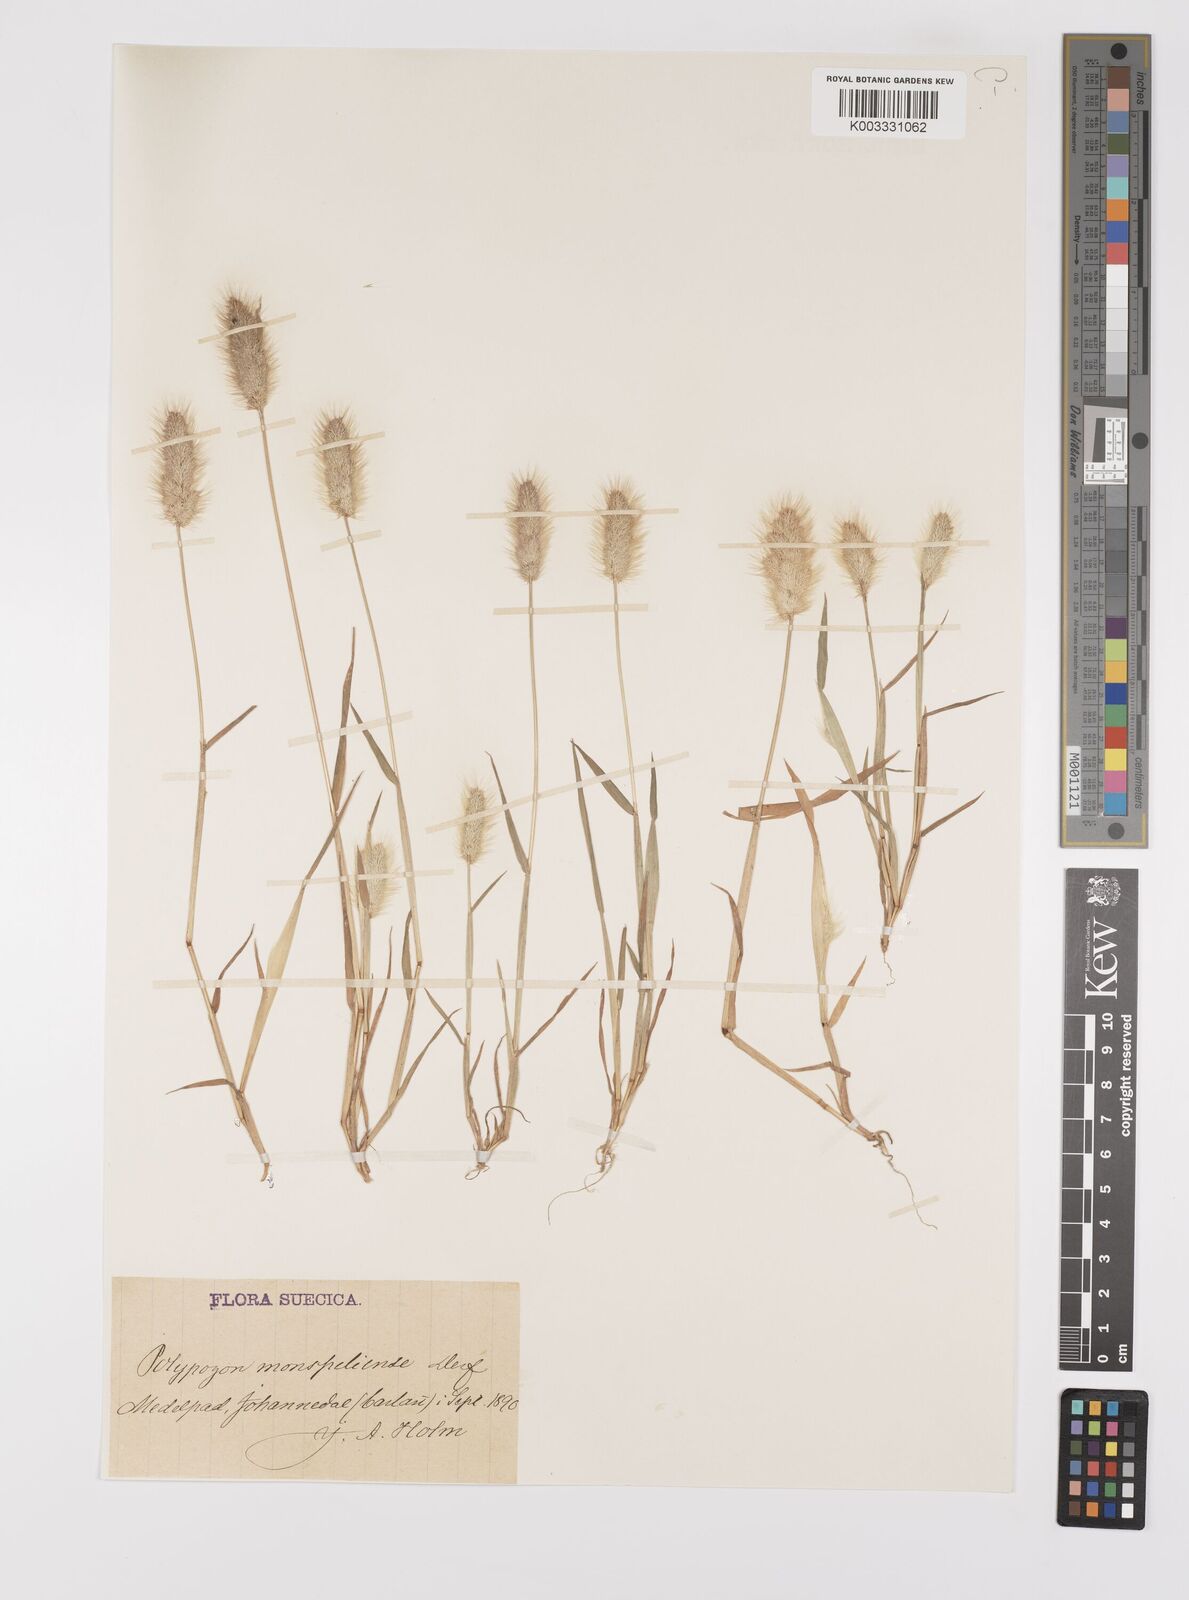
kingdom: Plantae
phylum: Tracheophyta
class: Liliopsida
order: Poales
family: Poaceae
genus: Polypogon
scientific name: Polypogon monspeliensis
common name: Annual rabbitsfoot grass
